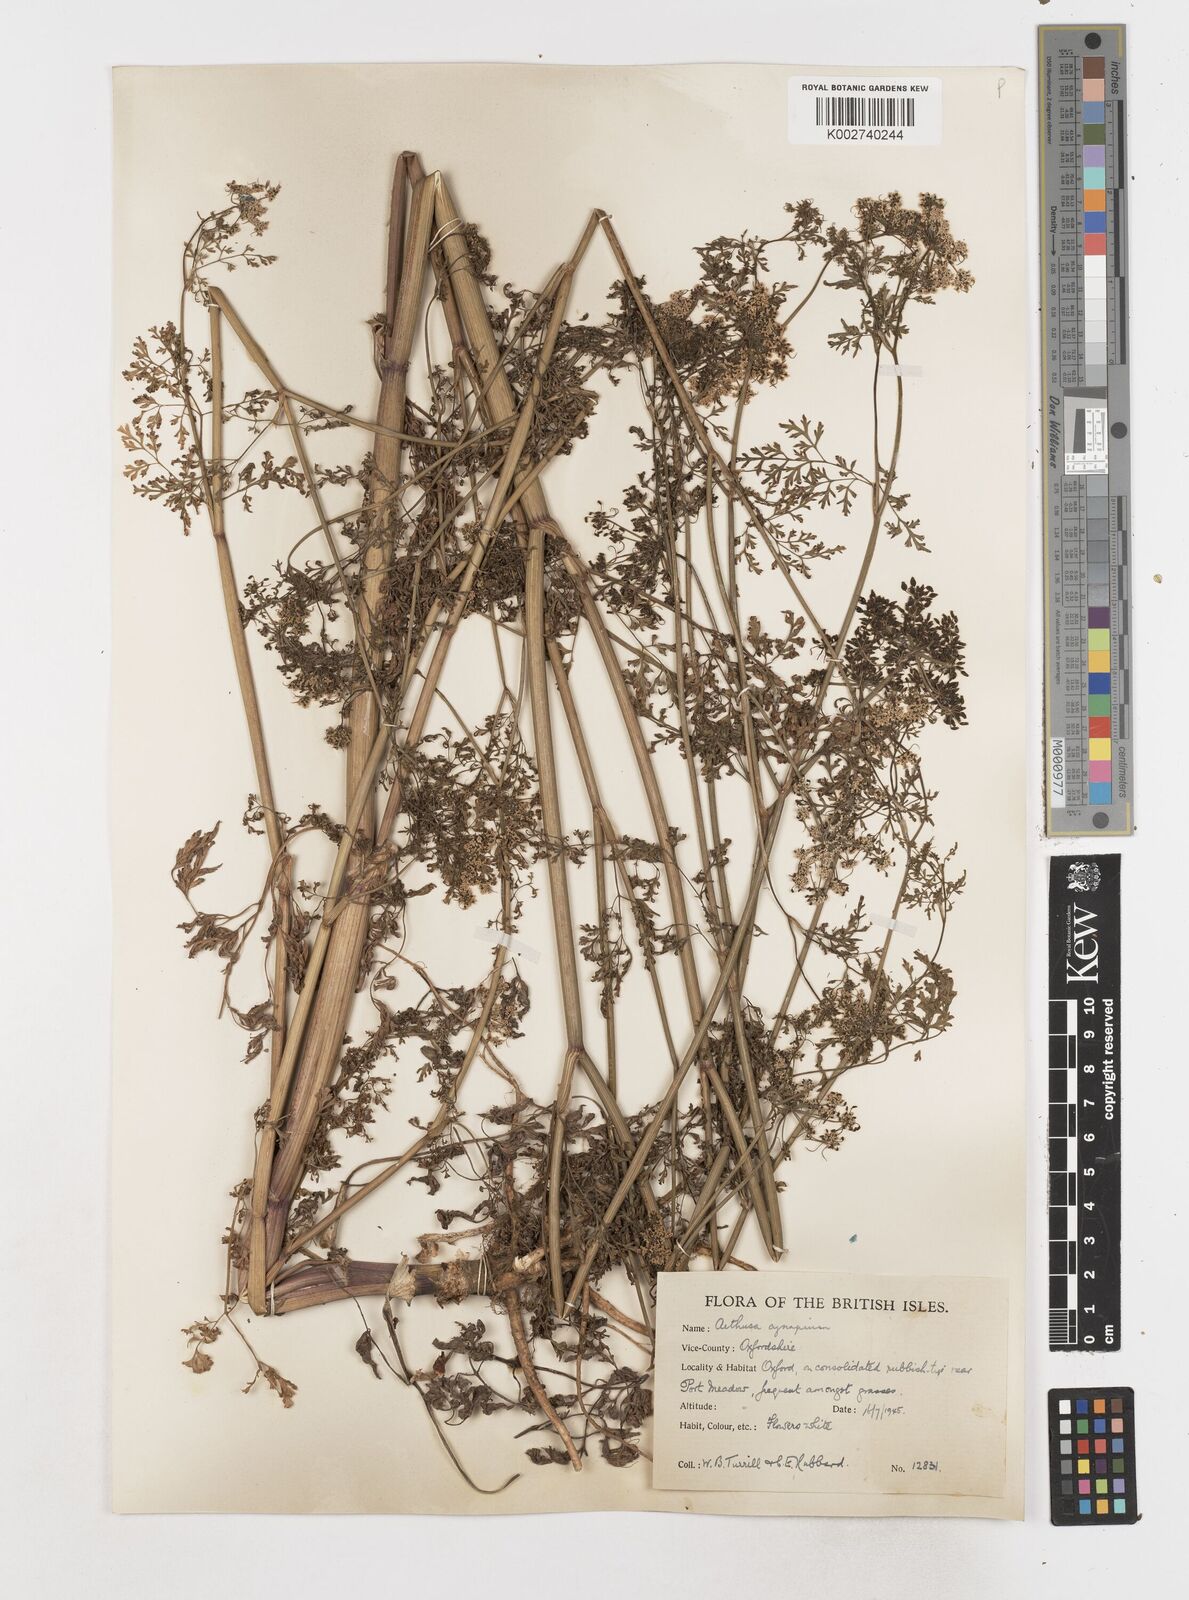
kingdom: Plantae
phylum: Tracheophyta
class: Magnoliopsida
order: Apiales
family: Apiaceae
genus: Aethusa
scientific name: Aethusa cynapium
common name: Fool's parsley
